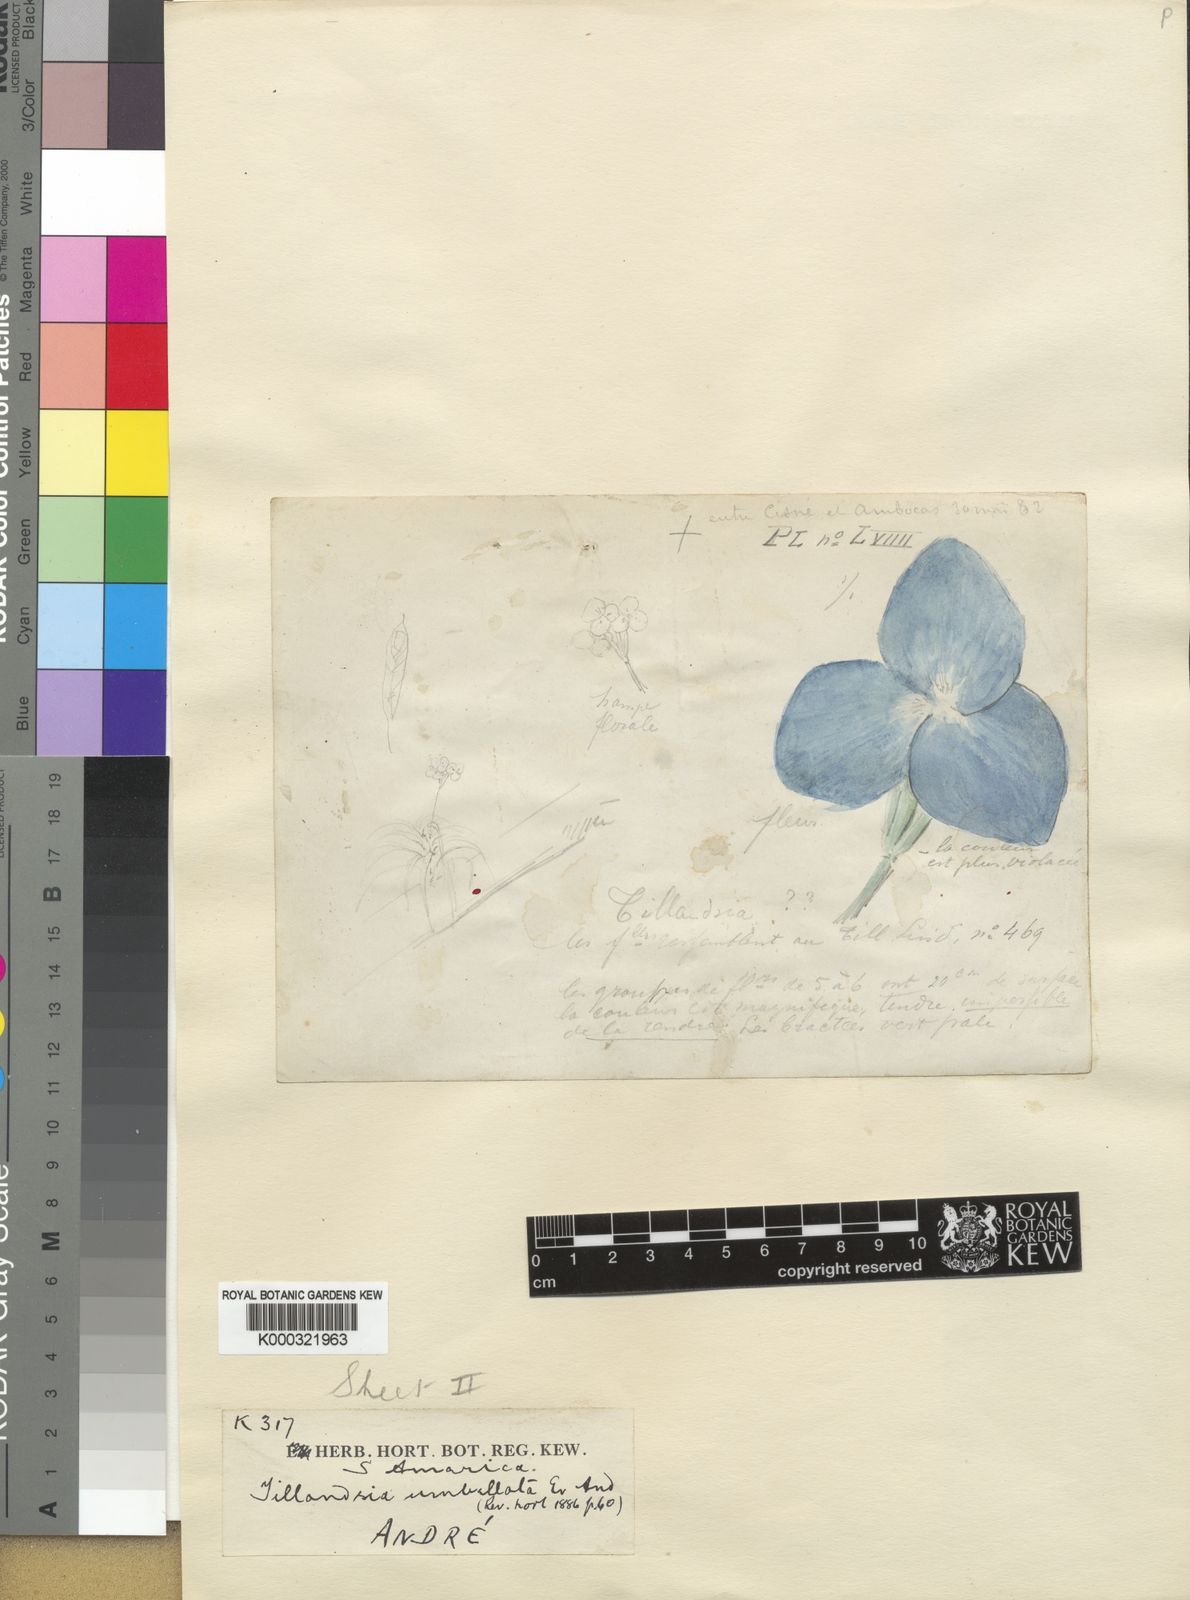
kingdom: Plantae
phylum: Tracheophyta
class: Liliopsida
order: Poales
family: Bromeliaceae
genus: Tillandsia
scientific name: Tillandsia
